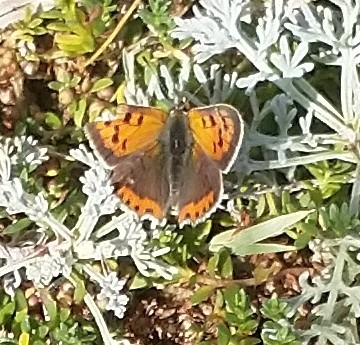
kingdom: Animalia
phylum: Arthropoda
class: Insecta
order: Lepidoptera
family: Lycaenidae
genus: Lycaena
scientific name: Lycaena phlaeas
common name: Lille ildfugl
